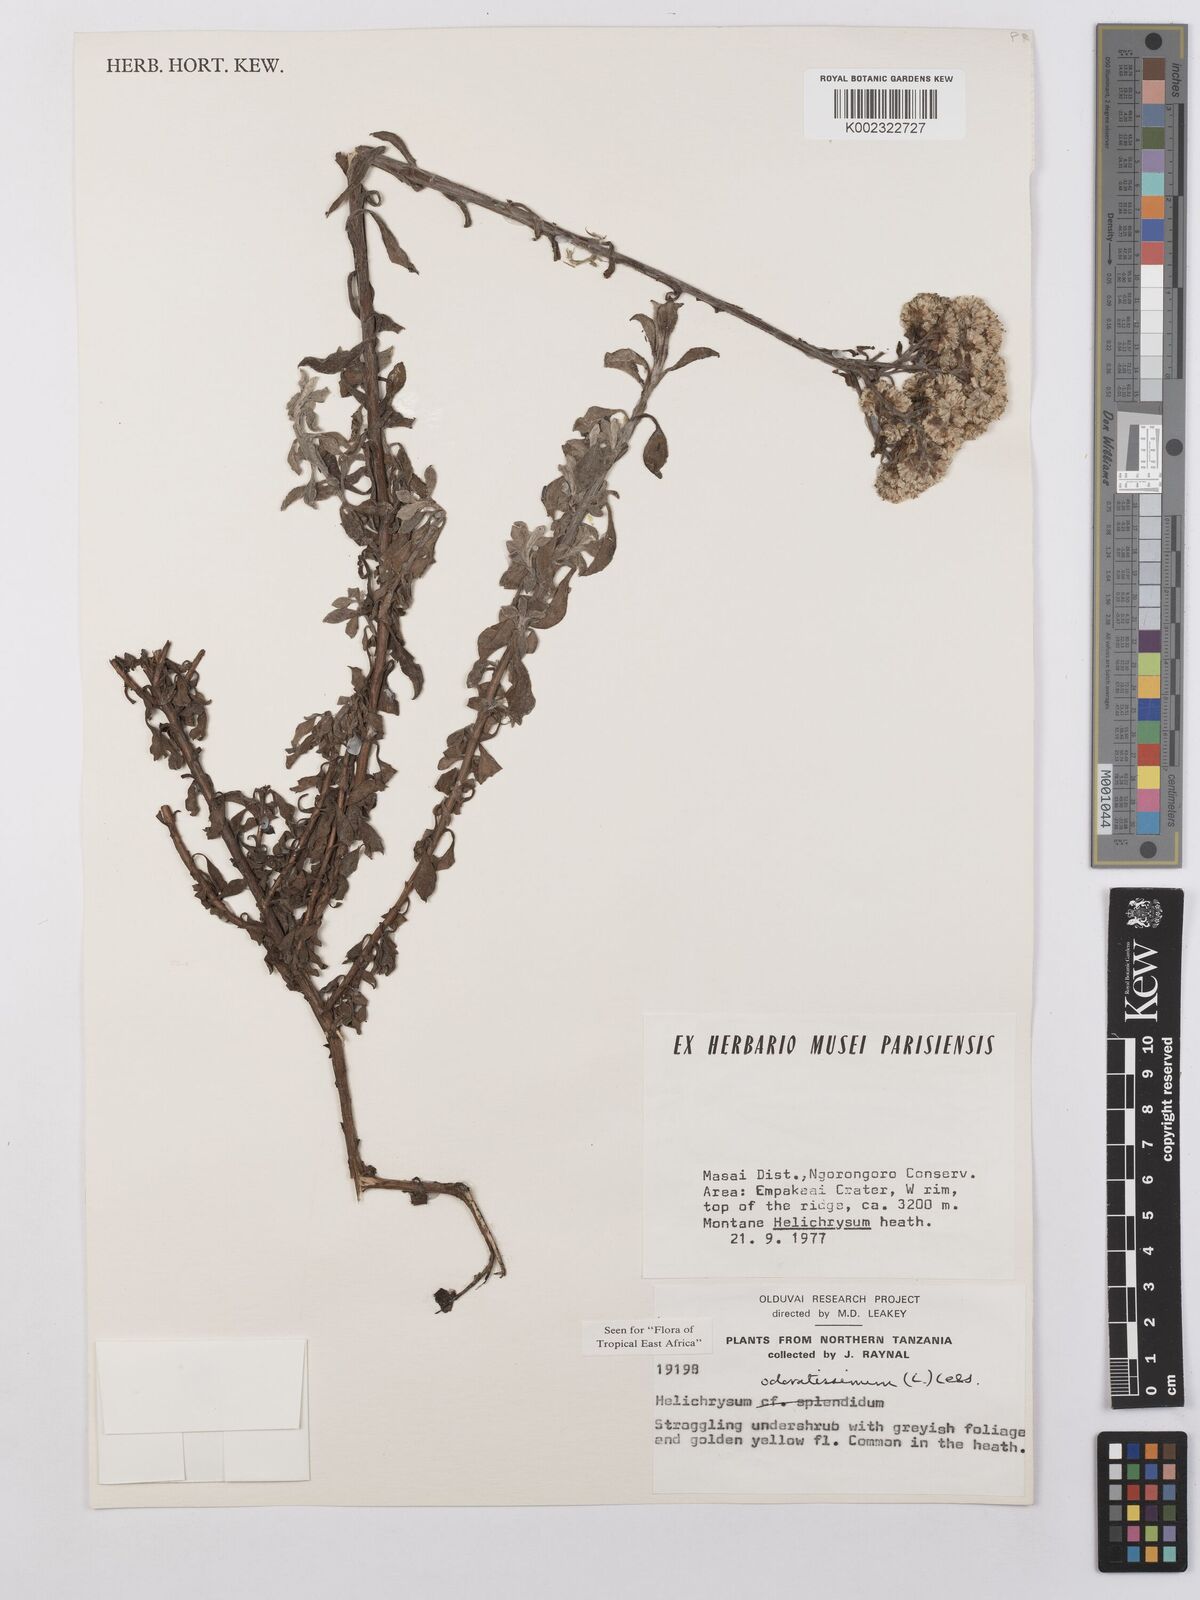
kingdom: Plantae
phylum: Tracheophyta
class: Magnoliopsida
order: Asterales
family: Asteraceae
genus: Helichrysum
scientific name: Helichrysum odoratissimum
